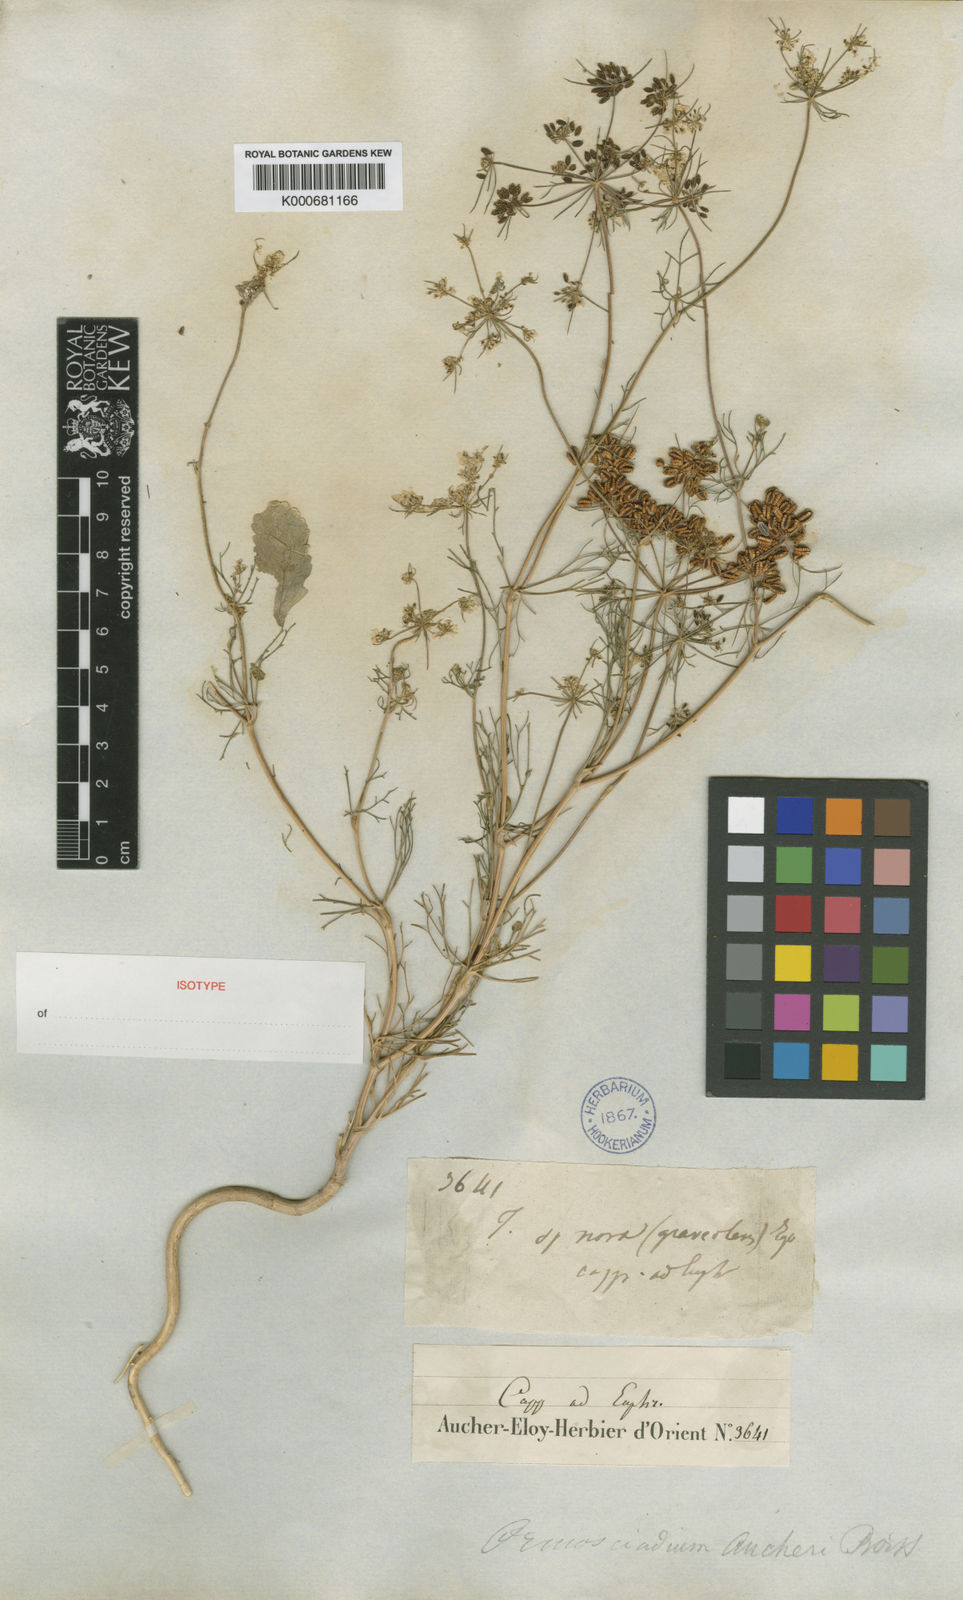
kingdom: Plantae
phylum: Tracheophyta
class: Magnoliopsida
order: Apiales
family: Apiaceae
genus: Ormosciadium
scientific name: Ormosciadium aucheri
